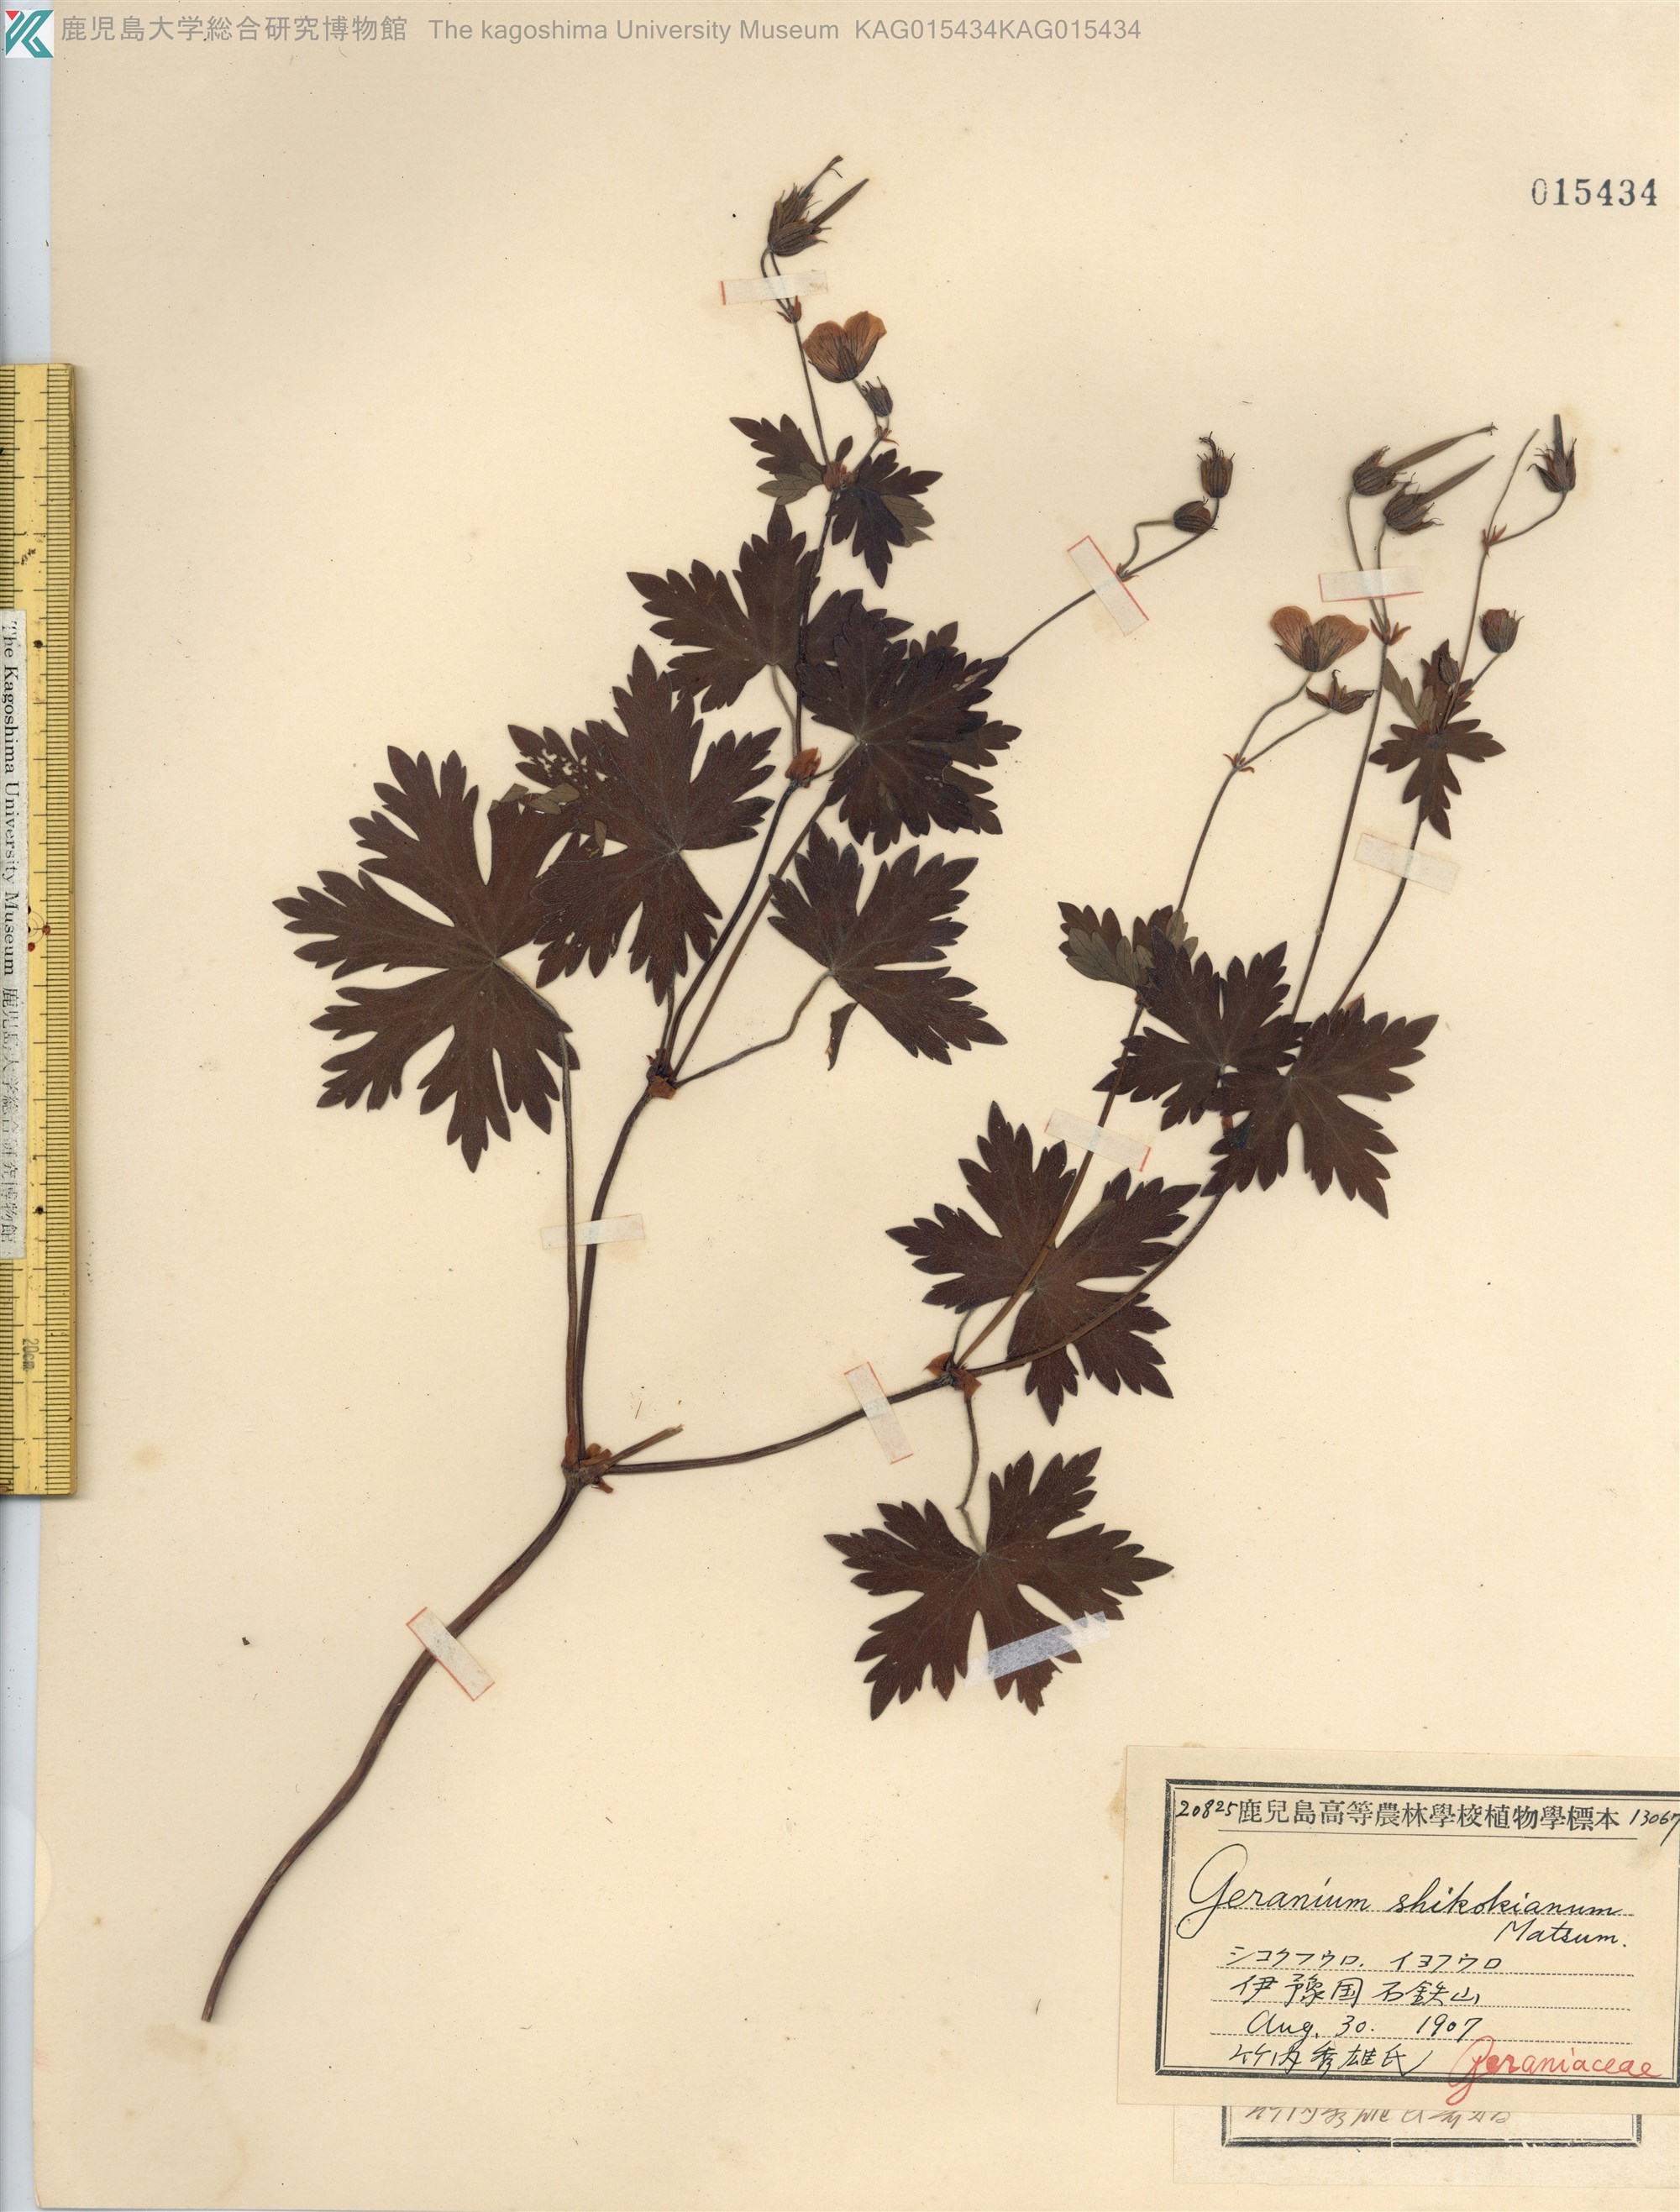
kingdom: Plantae
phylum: Tracheophyta
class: Magnoliopsida
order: Geraniales
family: Geraniaceae
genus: Geranium
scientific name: Geranium shikokianum
